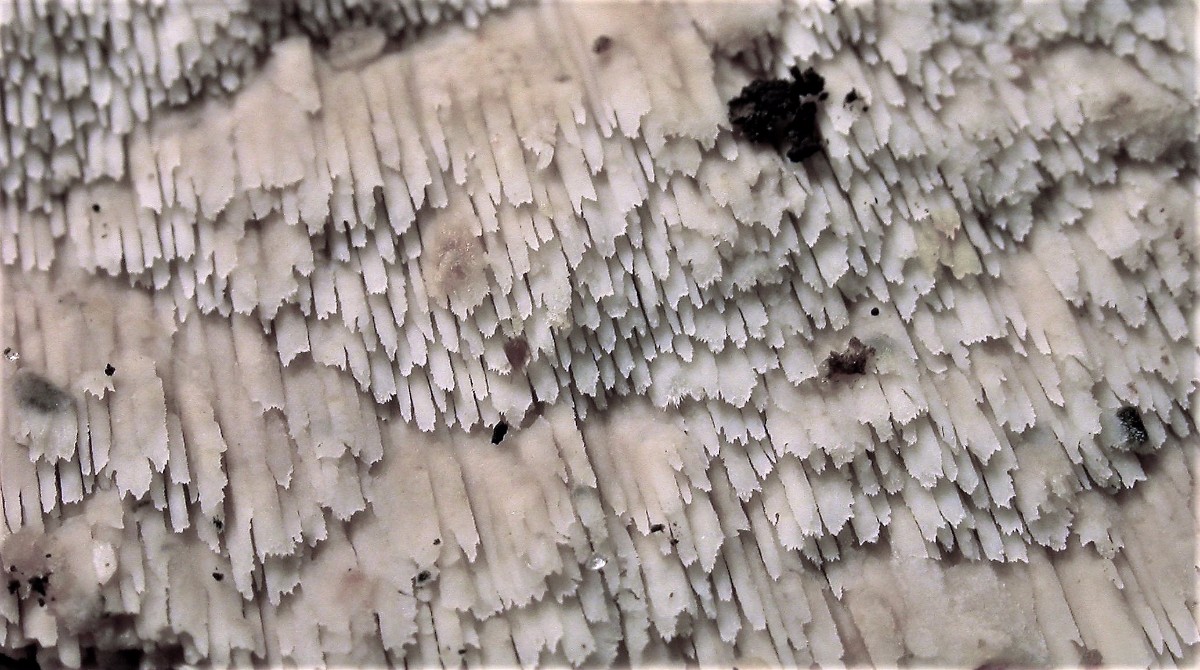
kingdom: Fungi
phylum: Basidiomycota
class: Agaricomycetes
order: Hymenochaetales
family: Schizoporaceae
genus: Schizopora
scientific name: Schizopora paradoxa
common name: hvid tandsvamp
